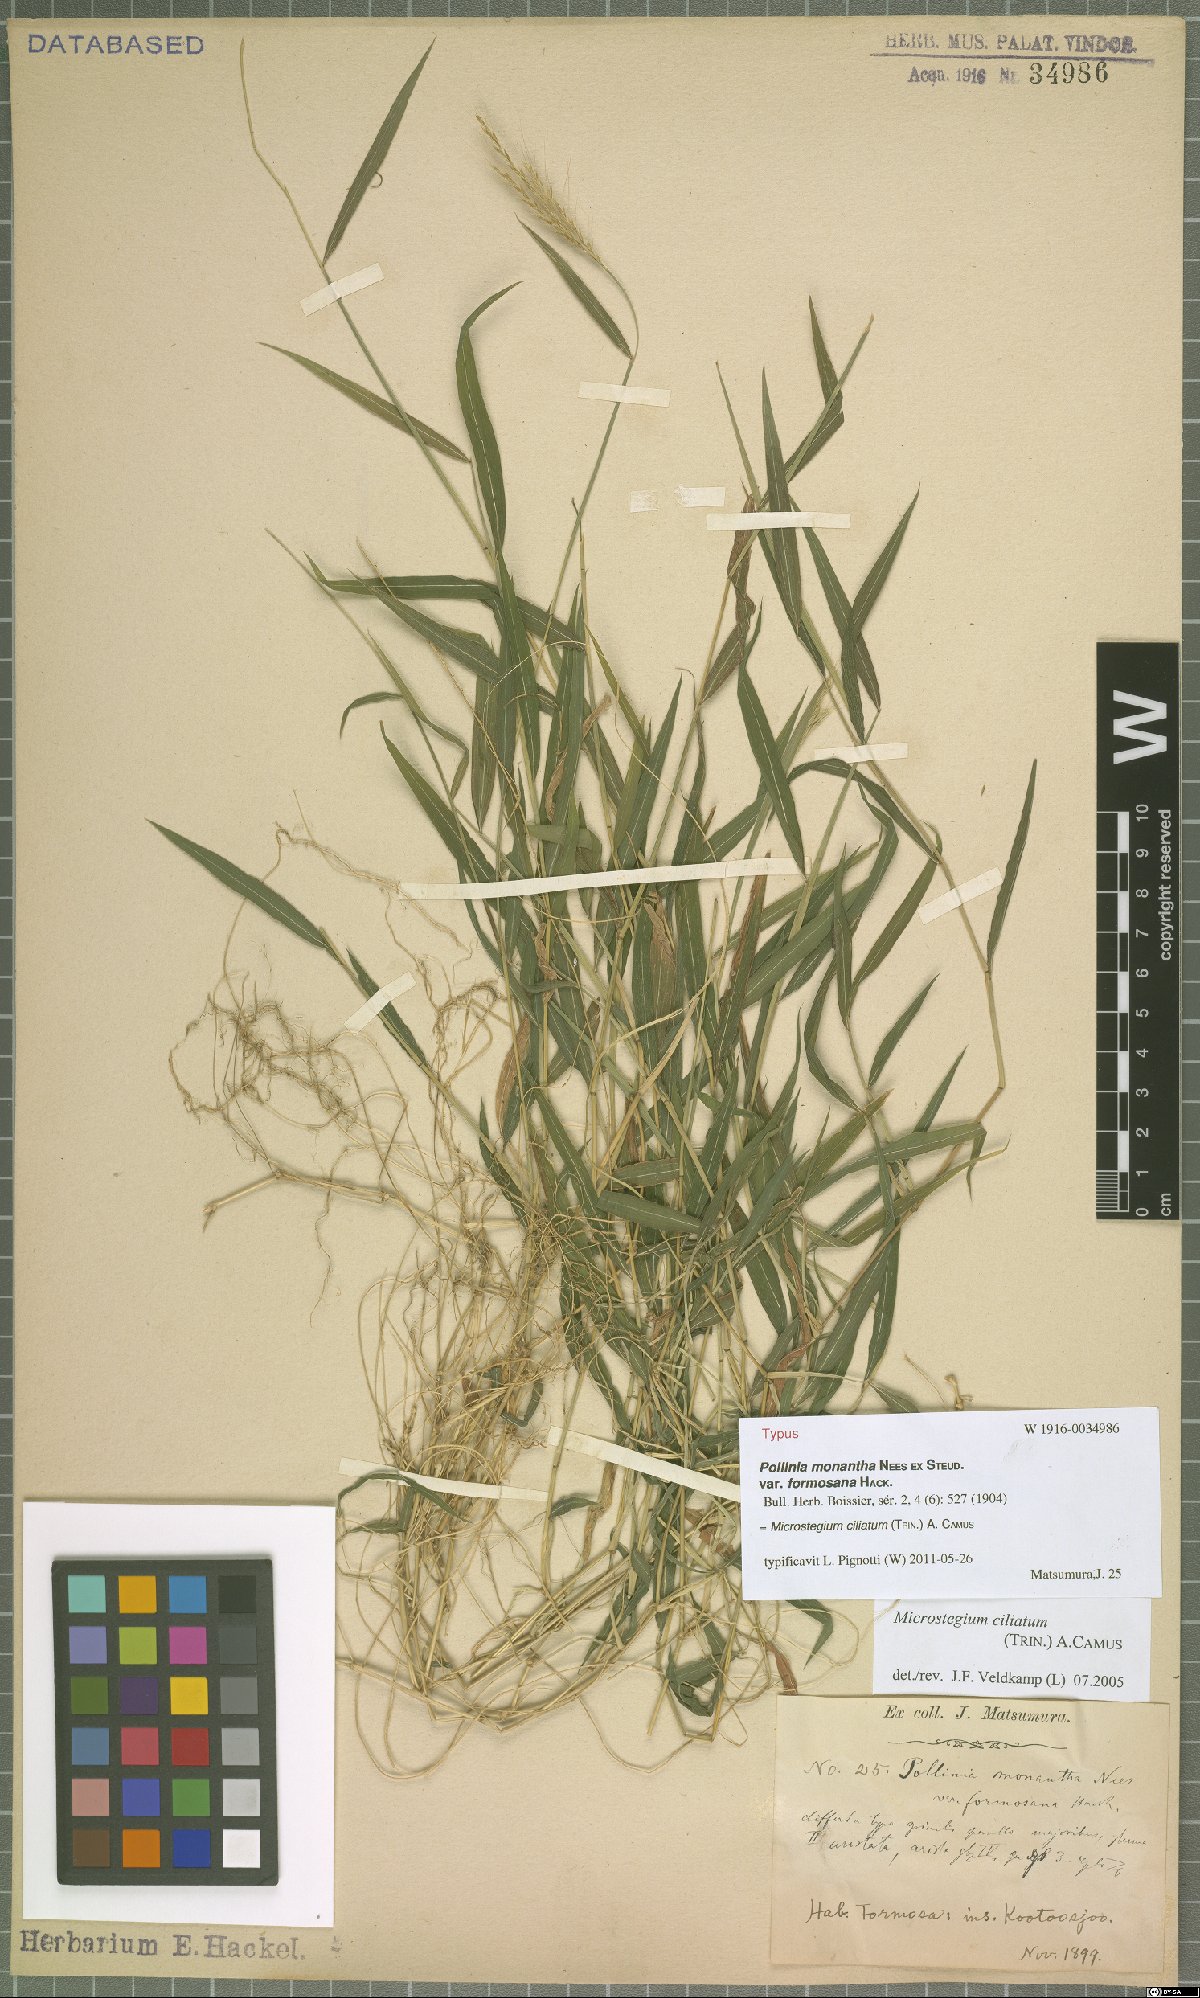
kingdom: Plantae
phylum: Tracheophyta
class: Liliopsida
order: Poales
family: Poaceae
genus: Microstegium
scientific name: Microstegium fasciculatum
